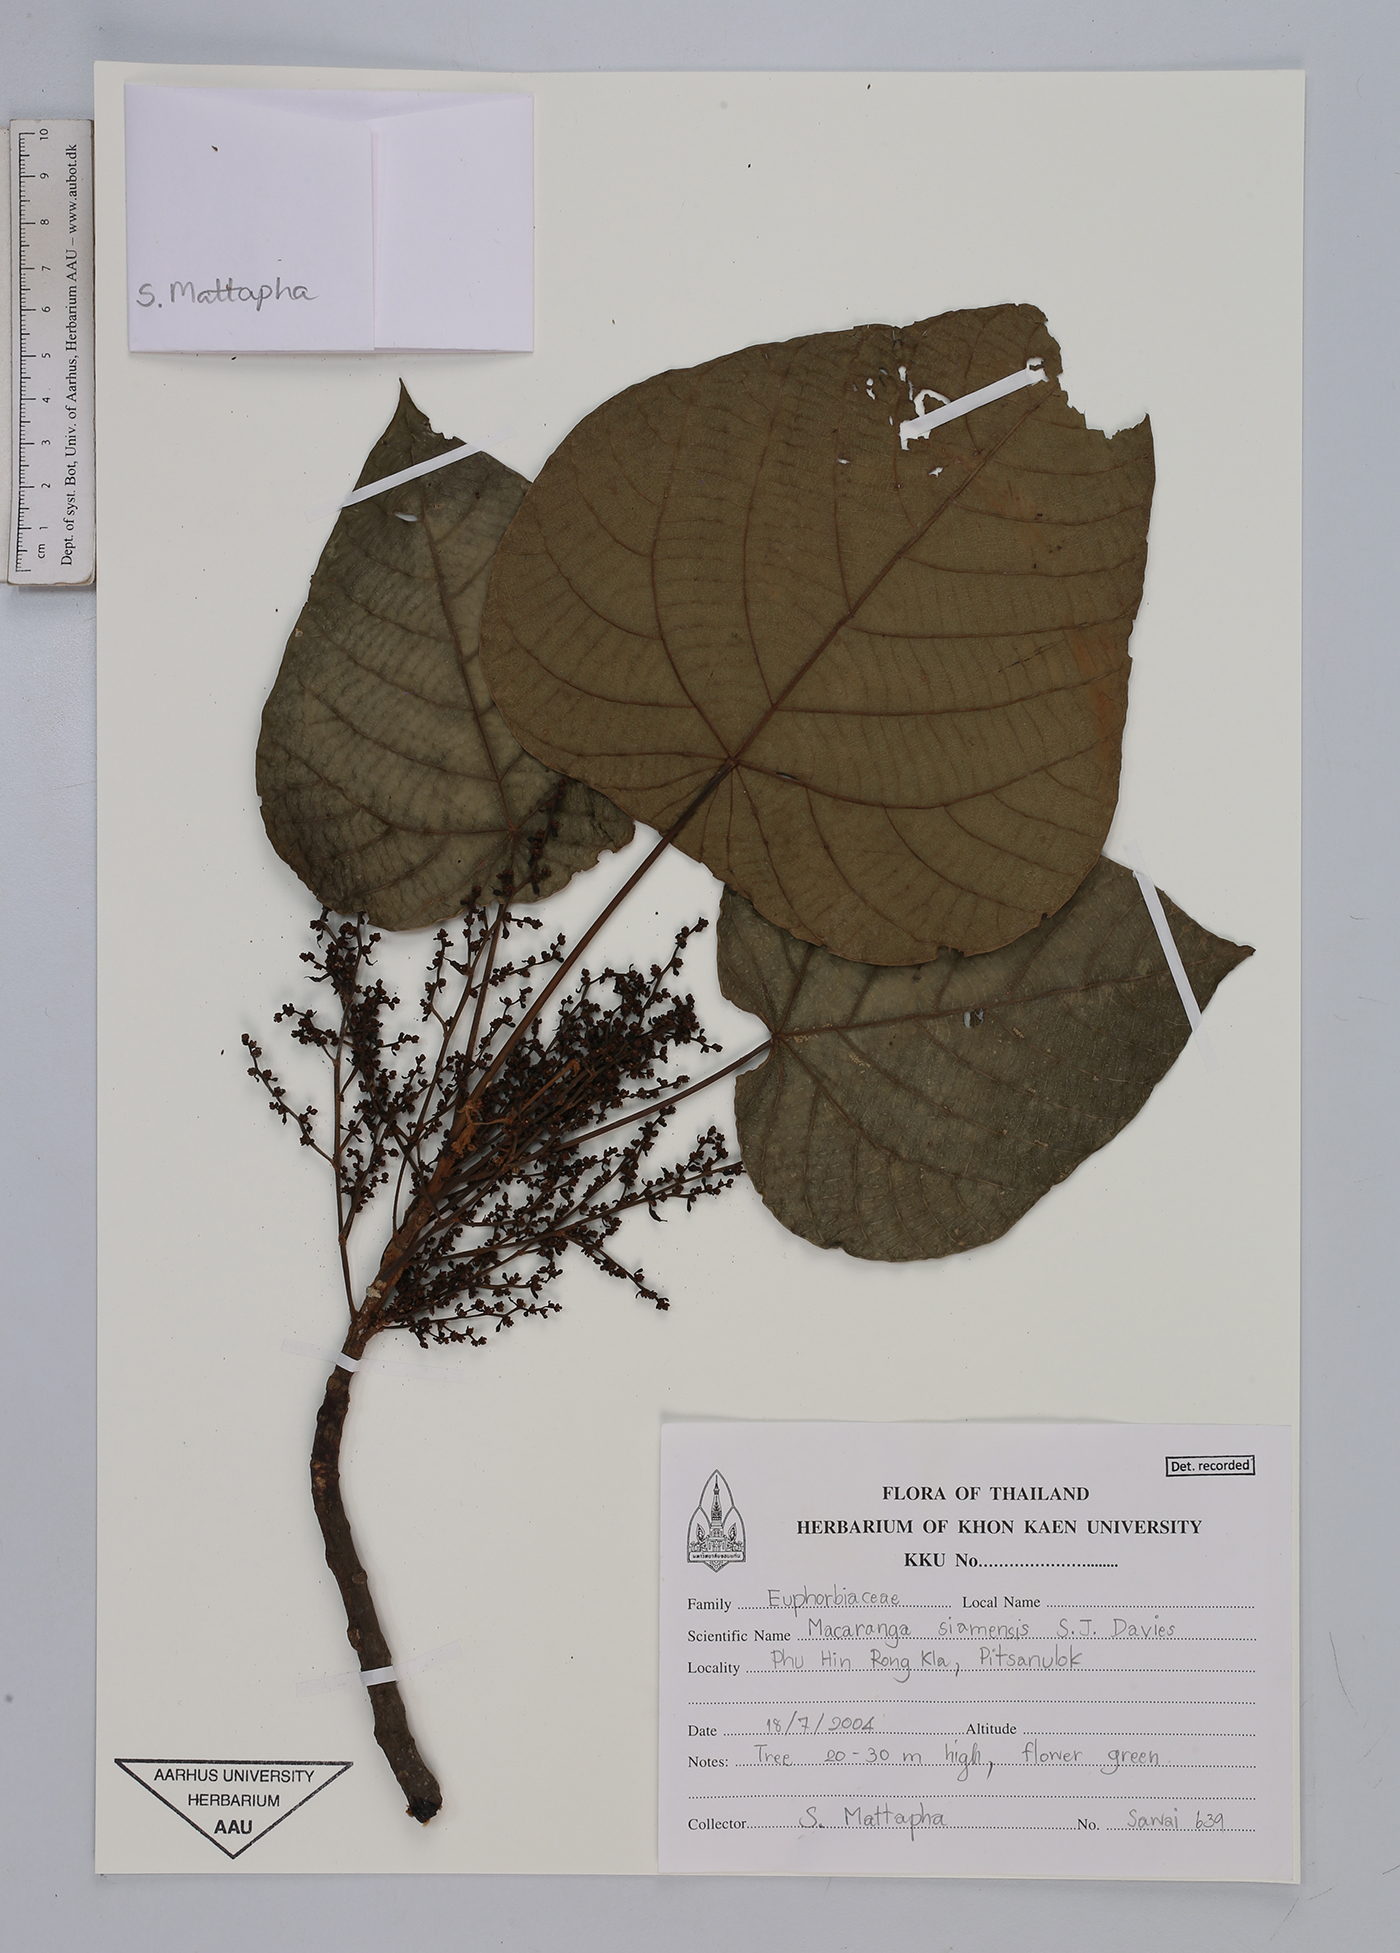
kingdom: Plantae
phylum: Tracheophyta
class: Magnoliopsida
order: Malpighiales
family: Euphorbiaceae
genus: Macaranga
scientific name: Macaranga siamensis
